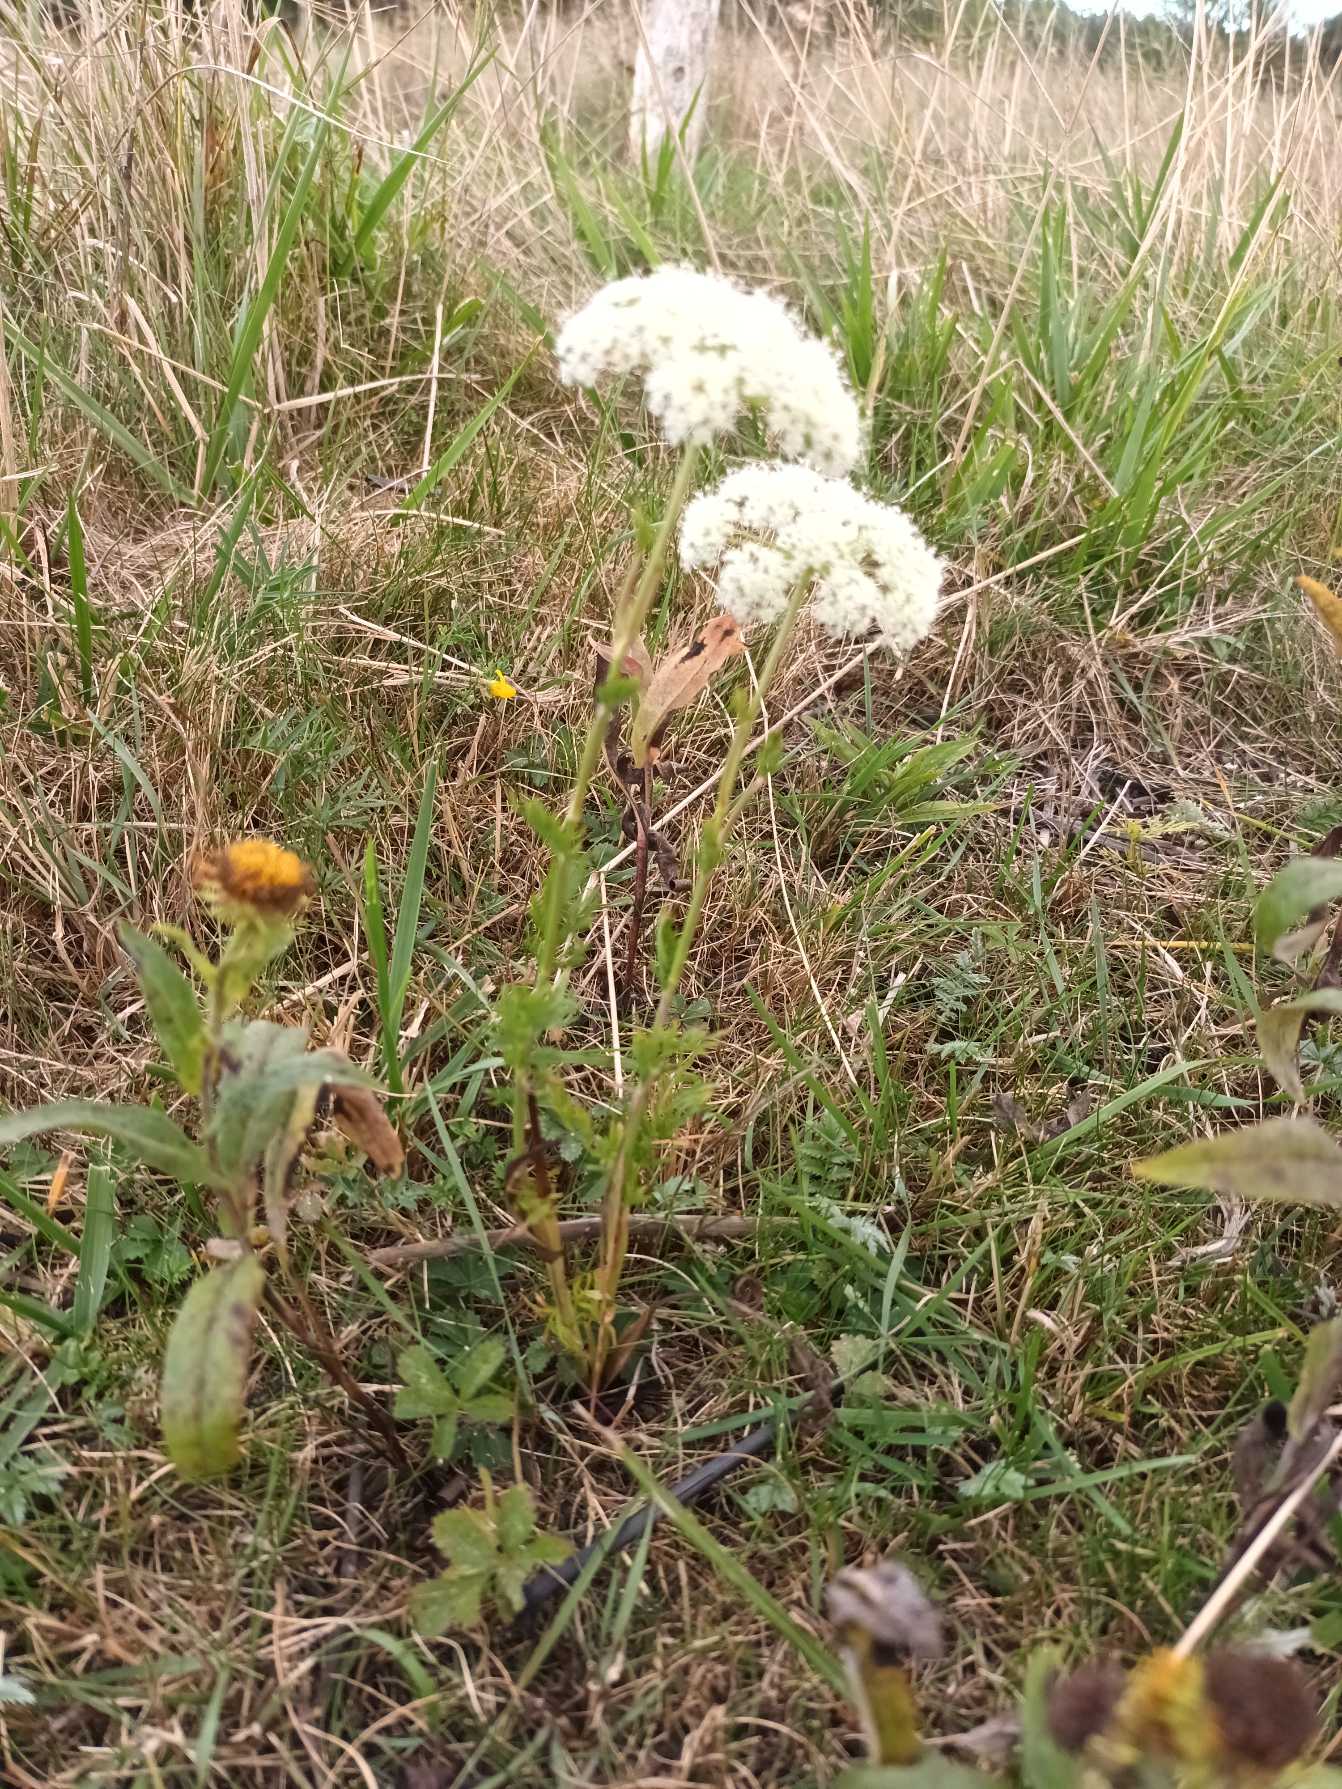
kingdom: Plantae
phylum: Tracheophyta
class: Magnoliopsida
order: Apiales
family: Apiaceae
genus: Kadenia
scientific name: Kadenia dubia
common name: Brændeskærm
